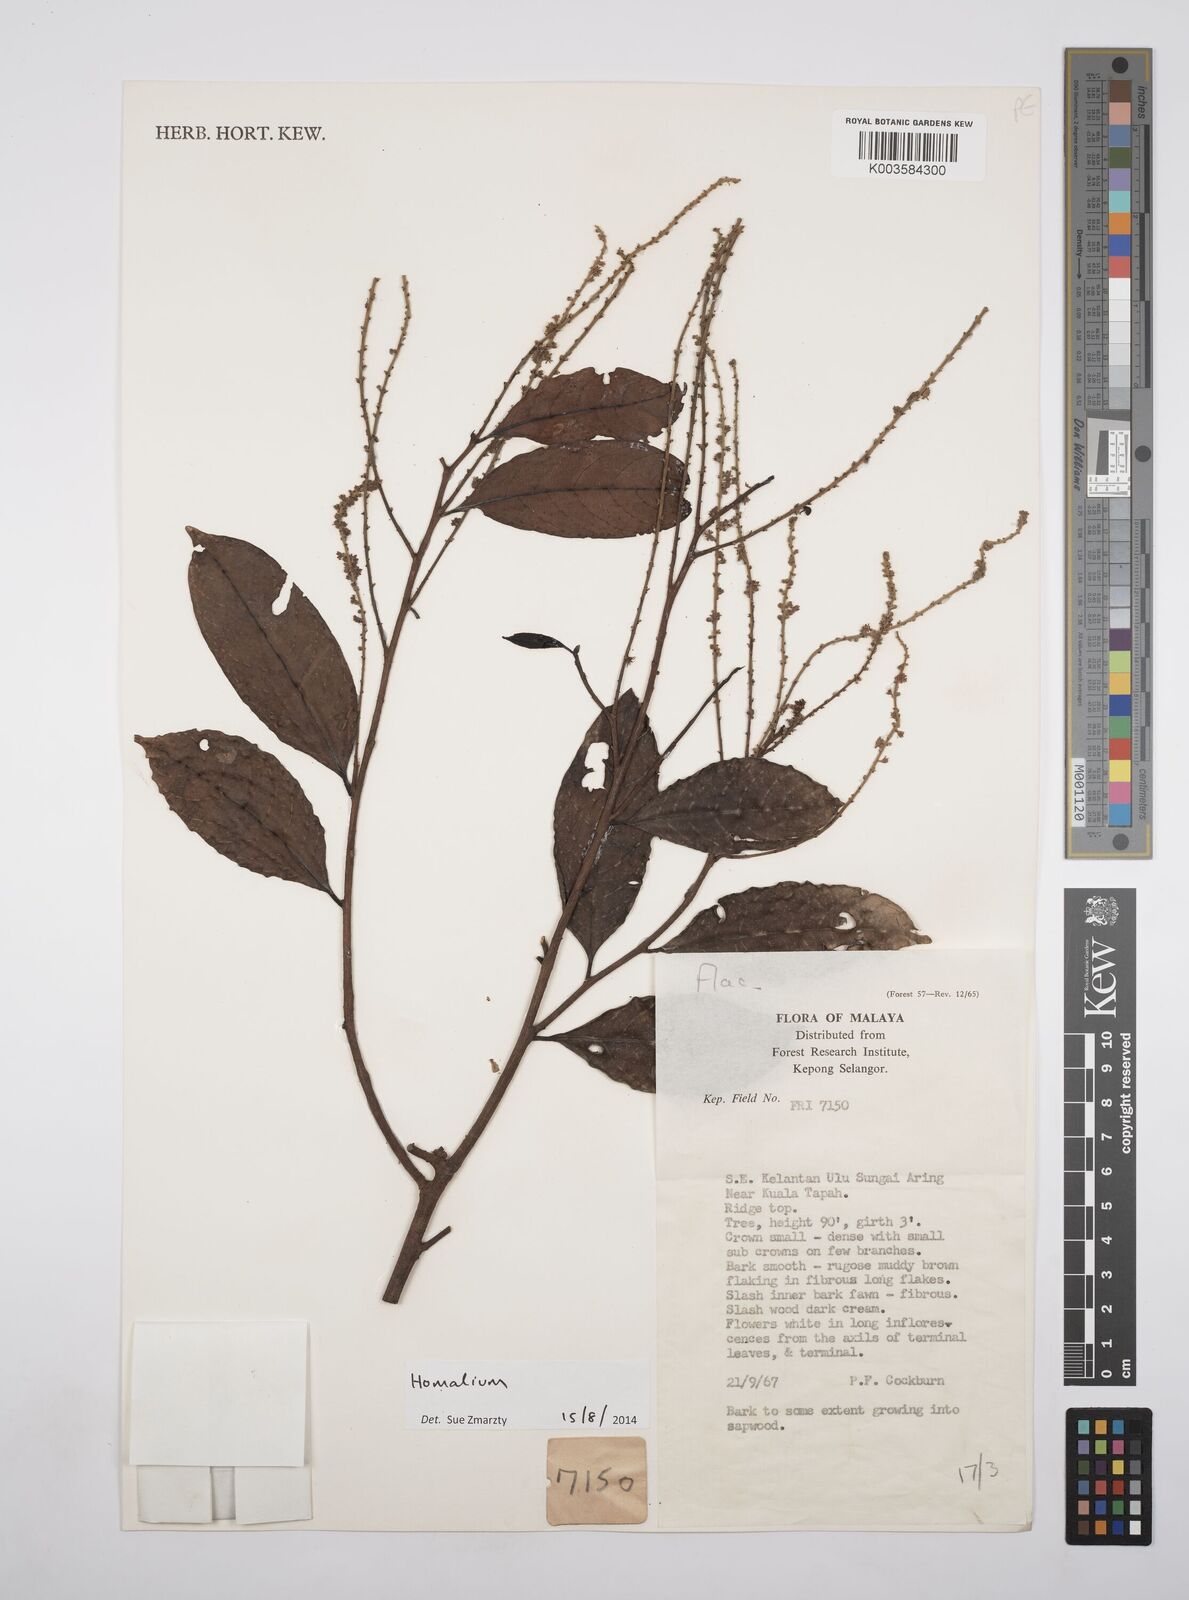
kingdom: Plantae
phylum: Tracheophyta
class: Magnoliopsida
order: Malpighiales
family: Salicaceae
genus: Homalium
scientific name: Homalium
